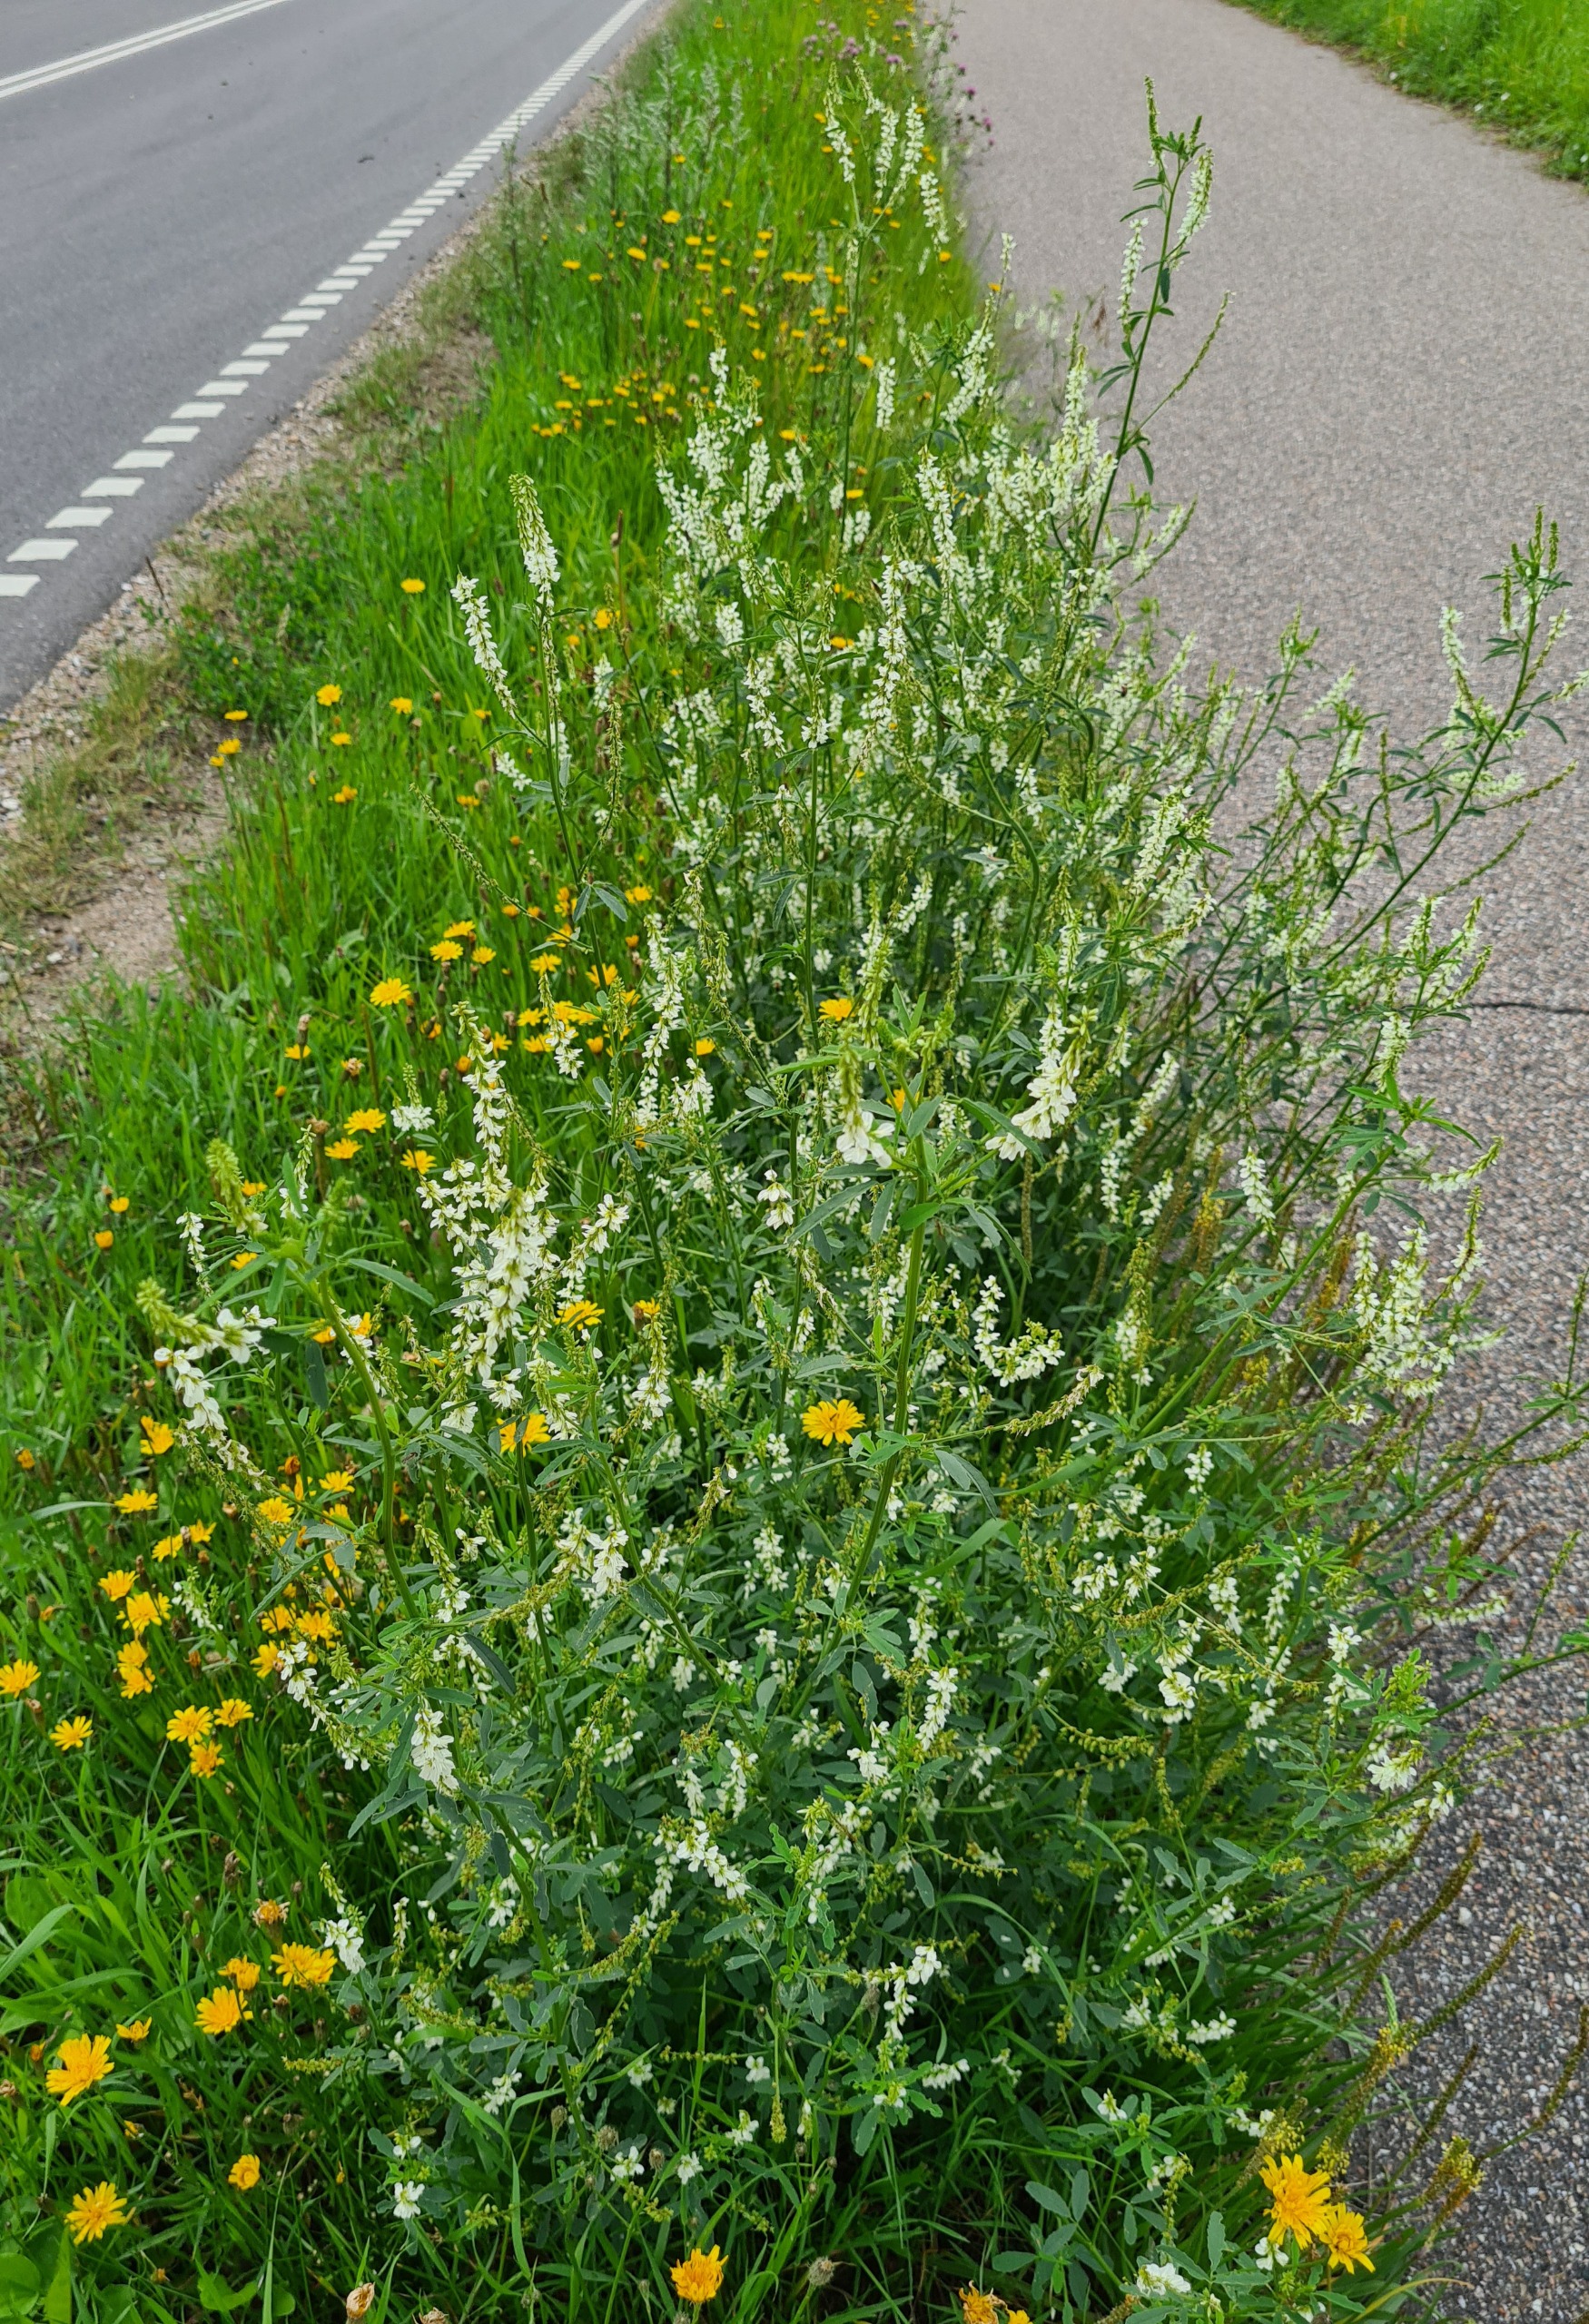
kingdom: Plantae
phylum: Tracheophyta
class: Magnoliopsida
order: Fabales
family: Fabaceae
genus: Melilotus
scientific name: Melilotus albus
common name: Hvid stenkløver
